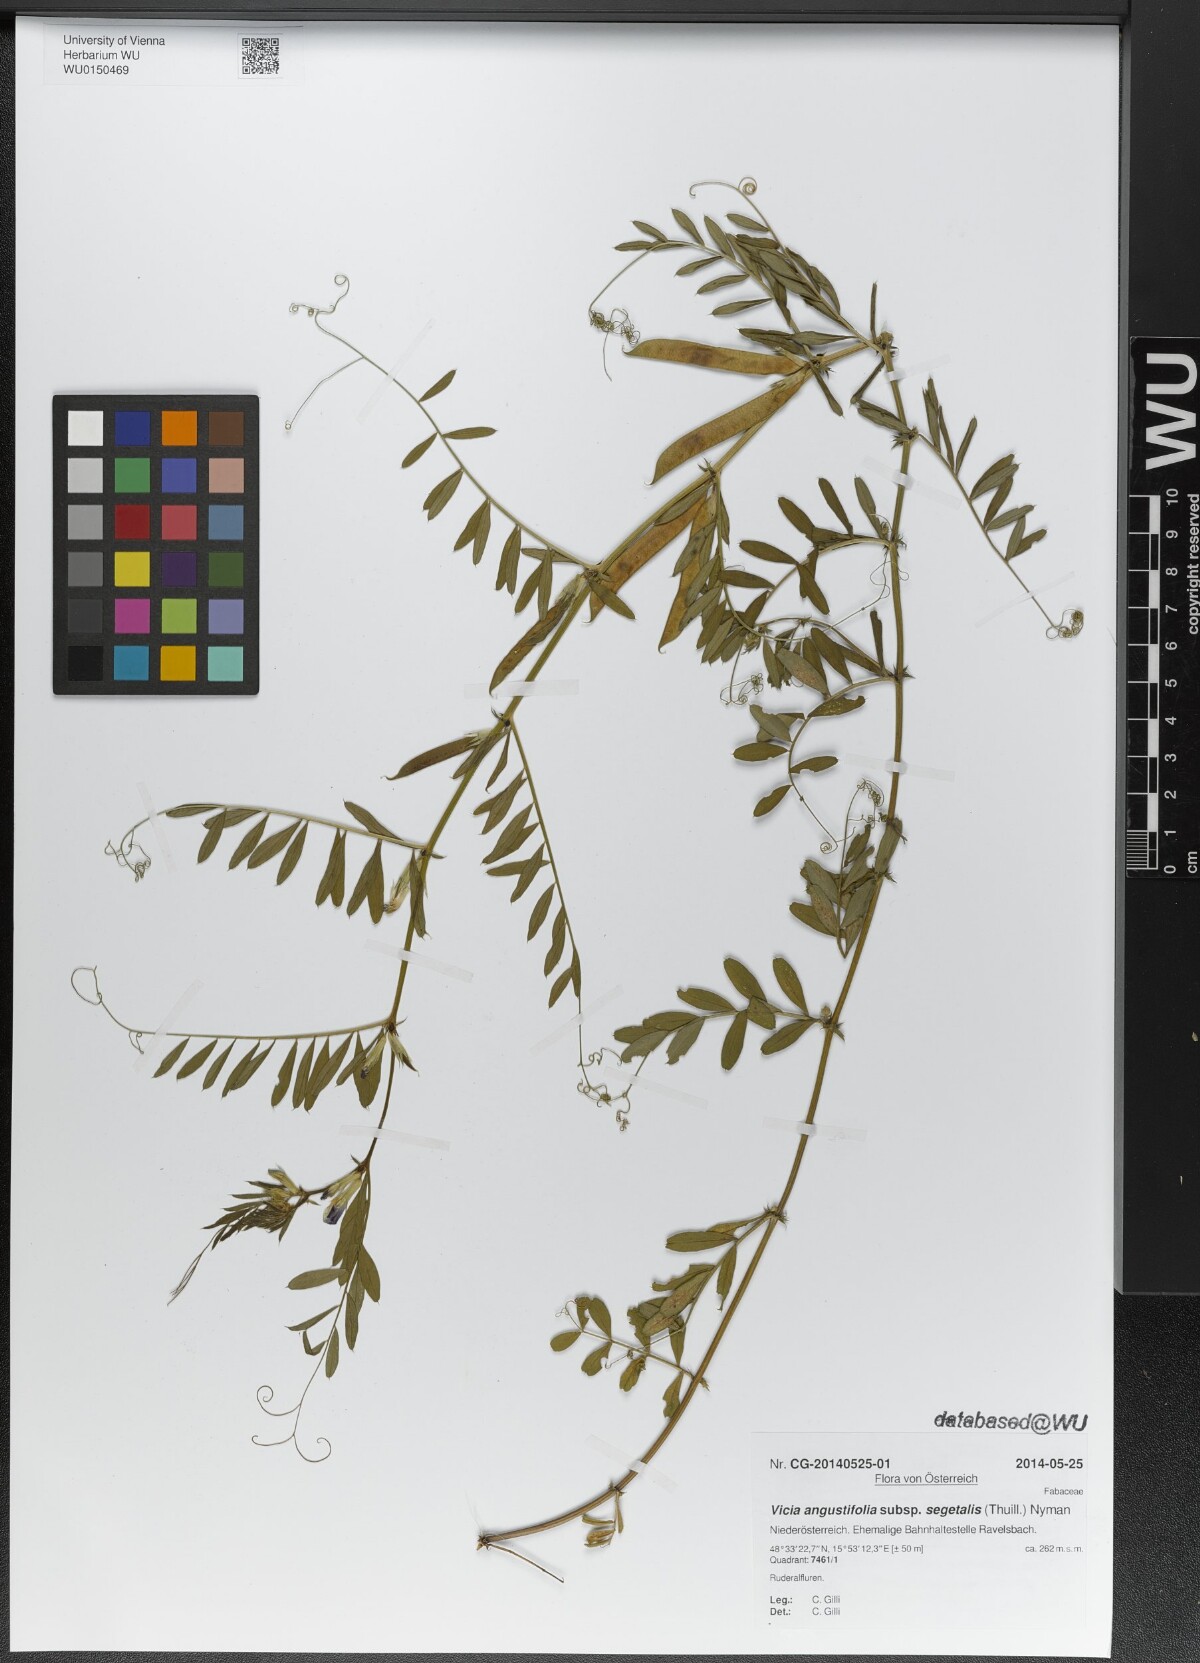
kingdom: Plantae
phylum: Tracheophyta
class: Magnoliopsida
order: Fabales
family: Fabaceae
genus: Vicia
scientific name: Vicia sativa
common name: Garden vetch
